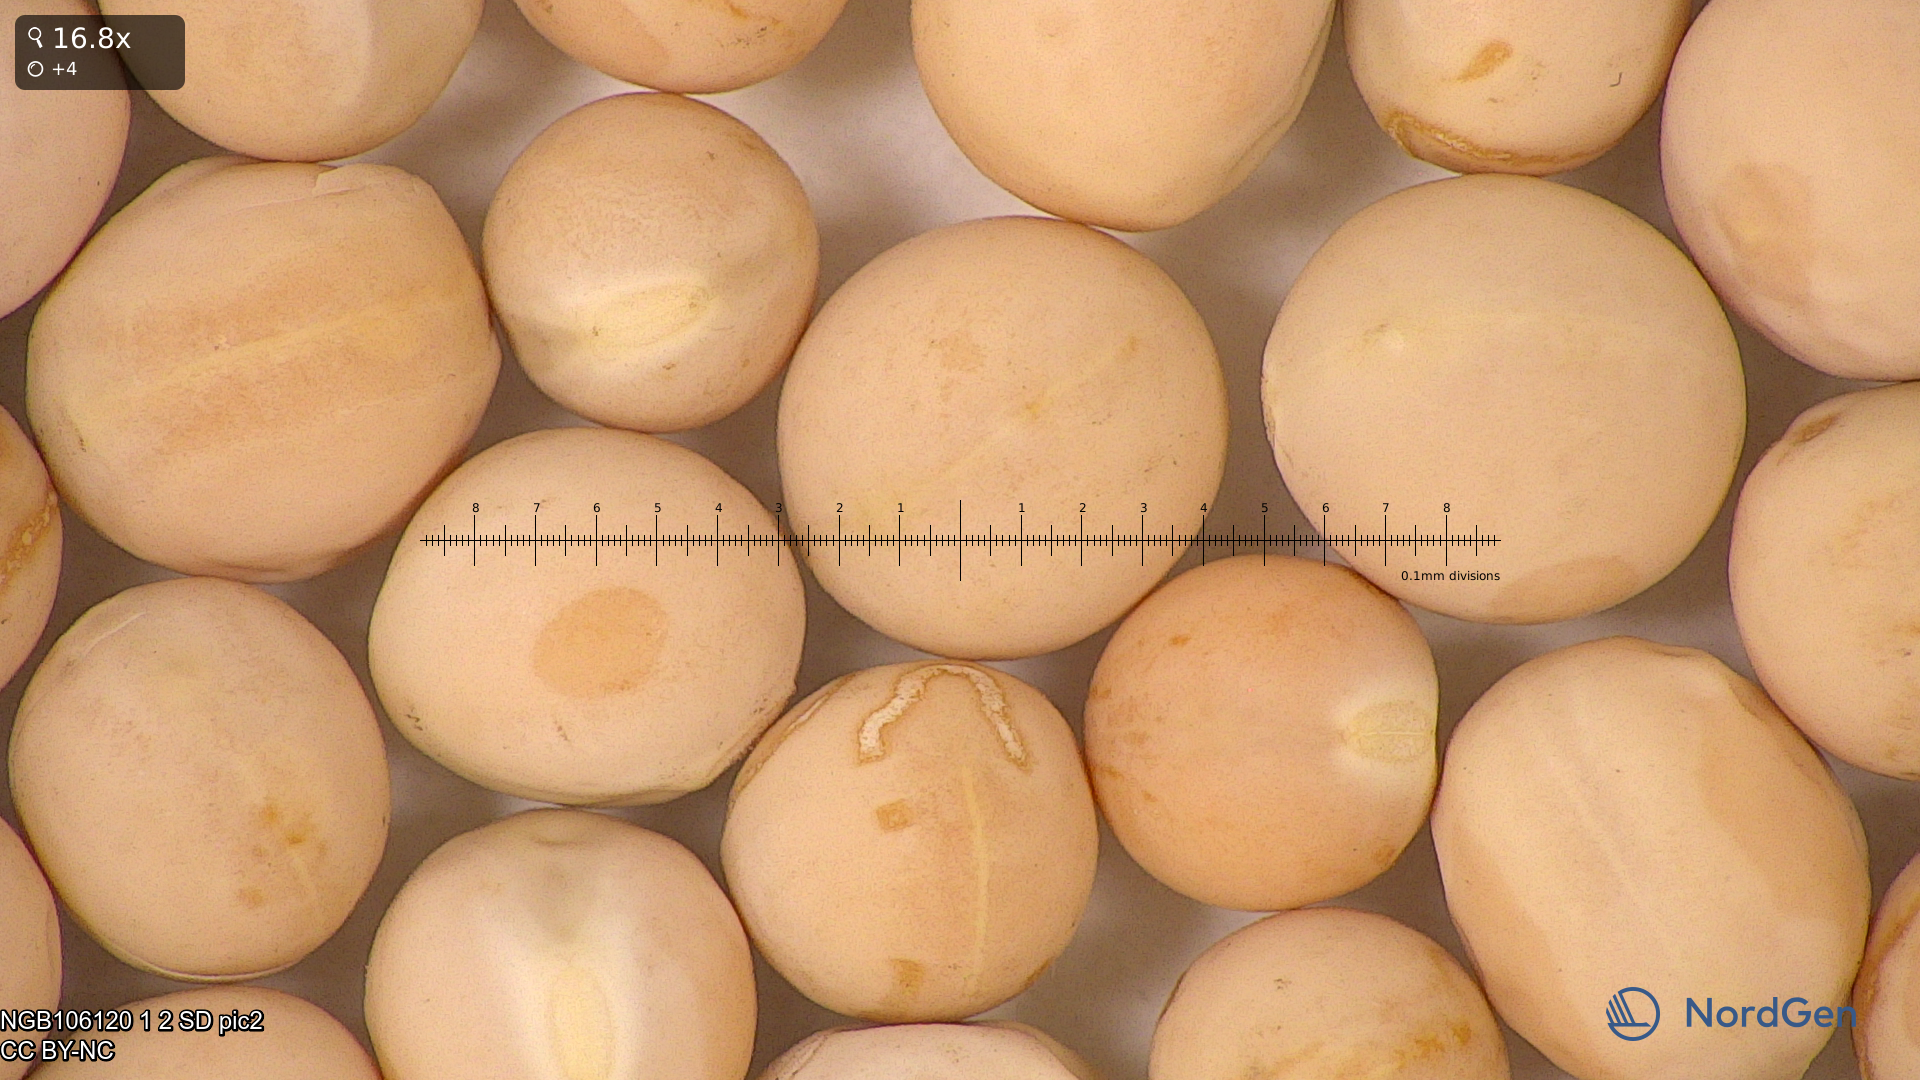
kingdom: Plantae
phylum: Tracheophyta
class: Magnoliopsida
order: Fabales
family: Fabaceae
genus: Lathyrus
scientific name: Lathyrus oleraceus
